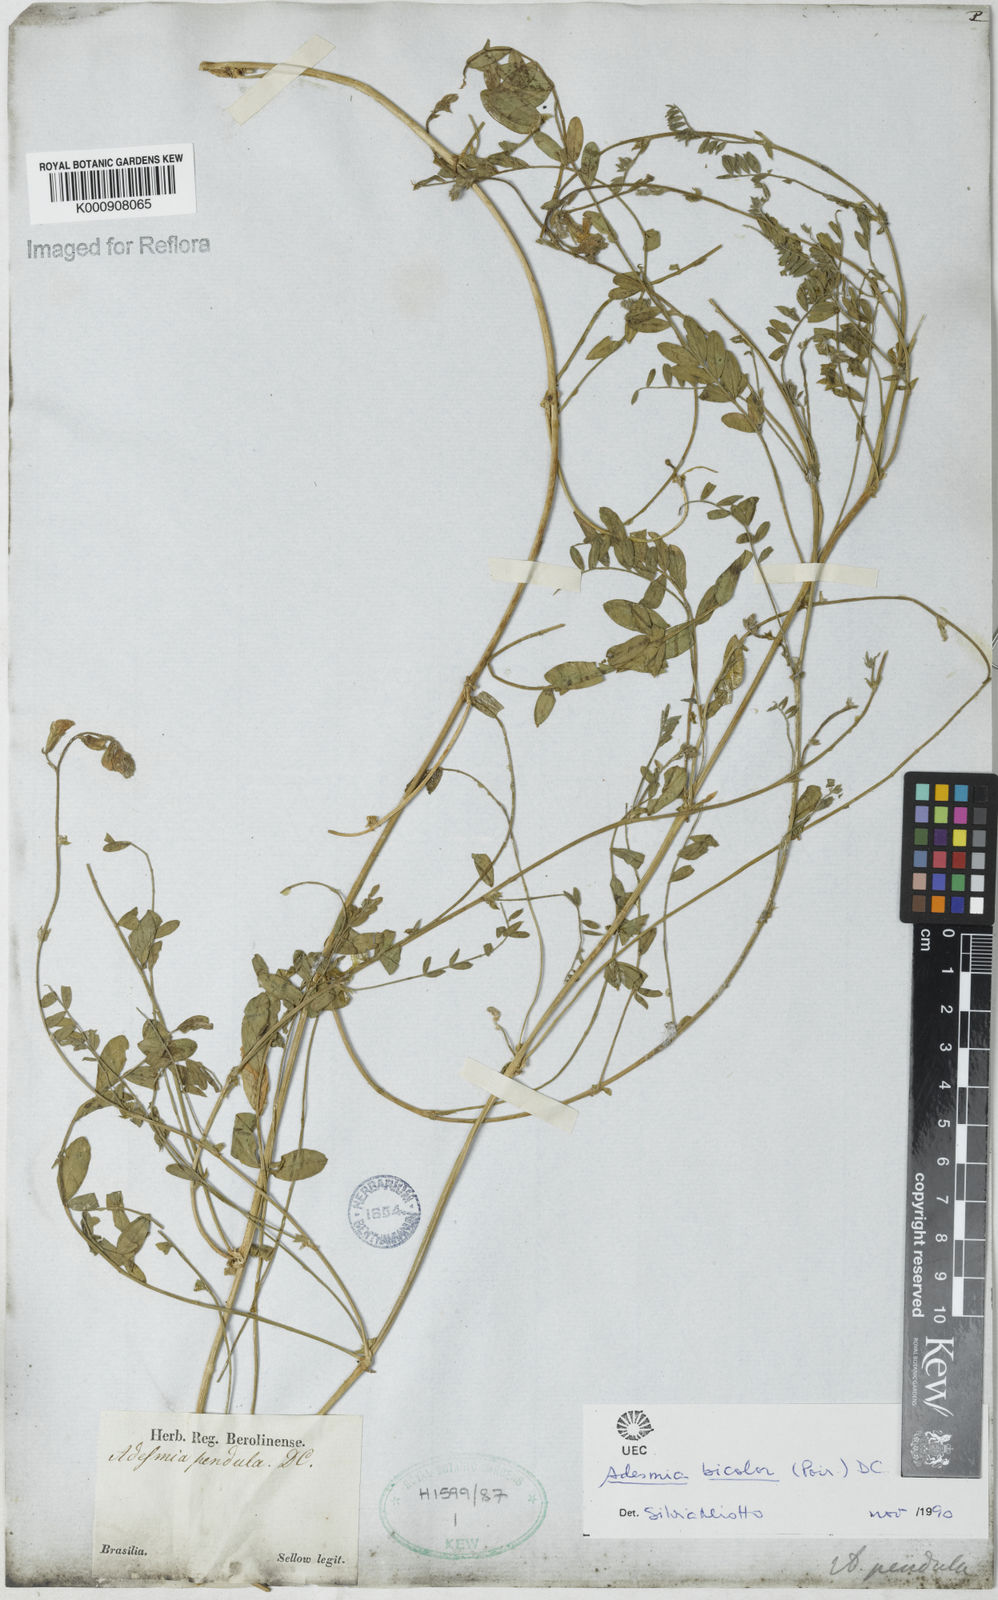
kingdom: Plantae
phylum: Tracheophyta
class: Magnoliopsida
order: Fabales
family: Fabaceae
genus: Adesmia
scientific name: Adesmia bicolora
